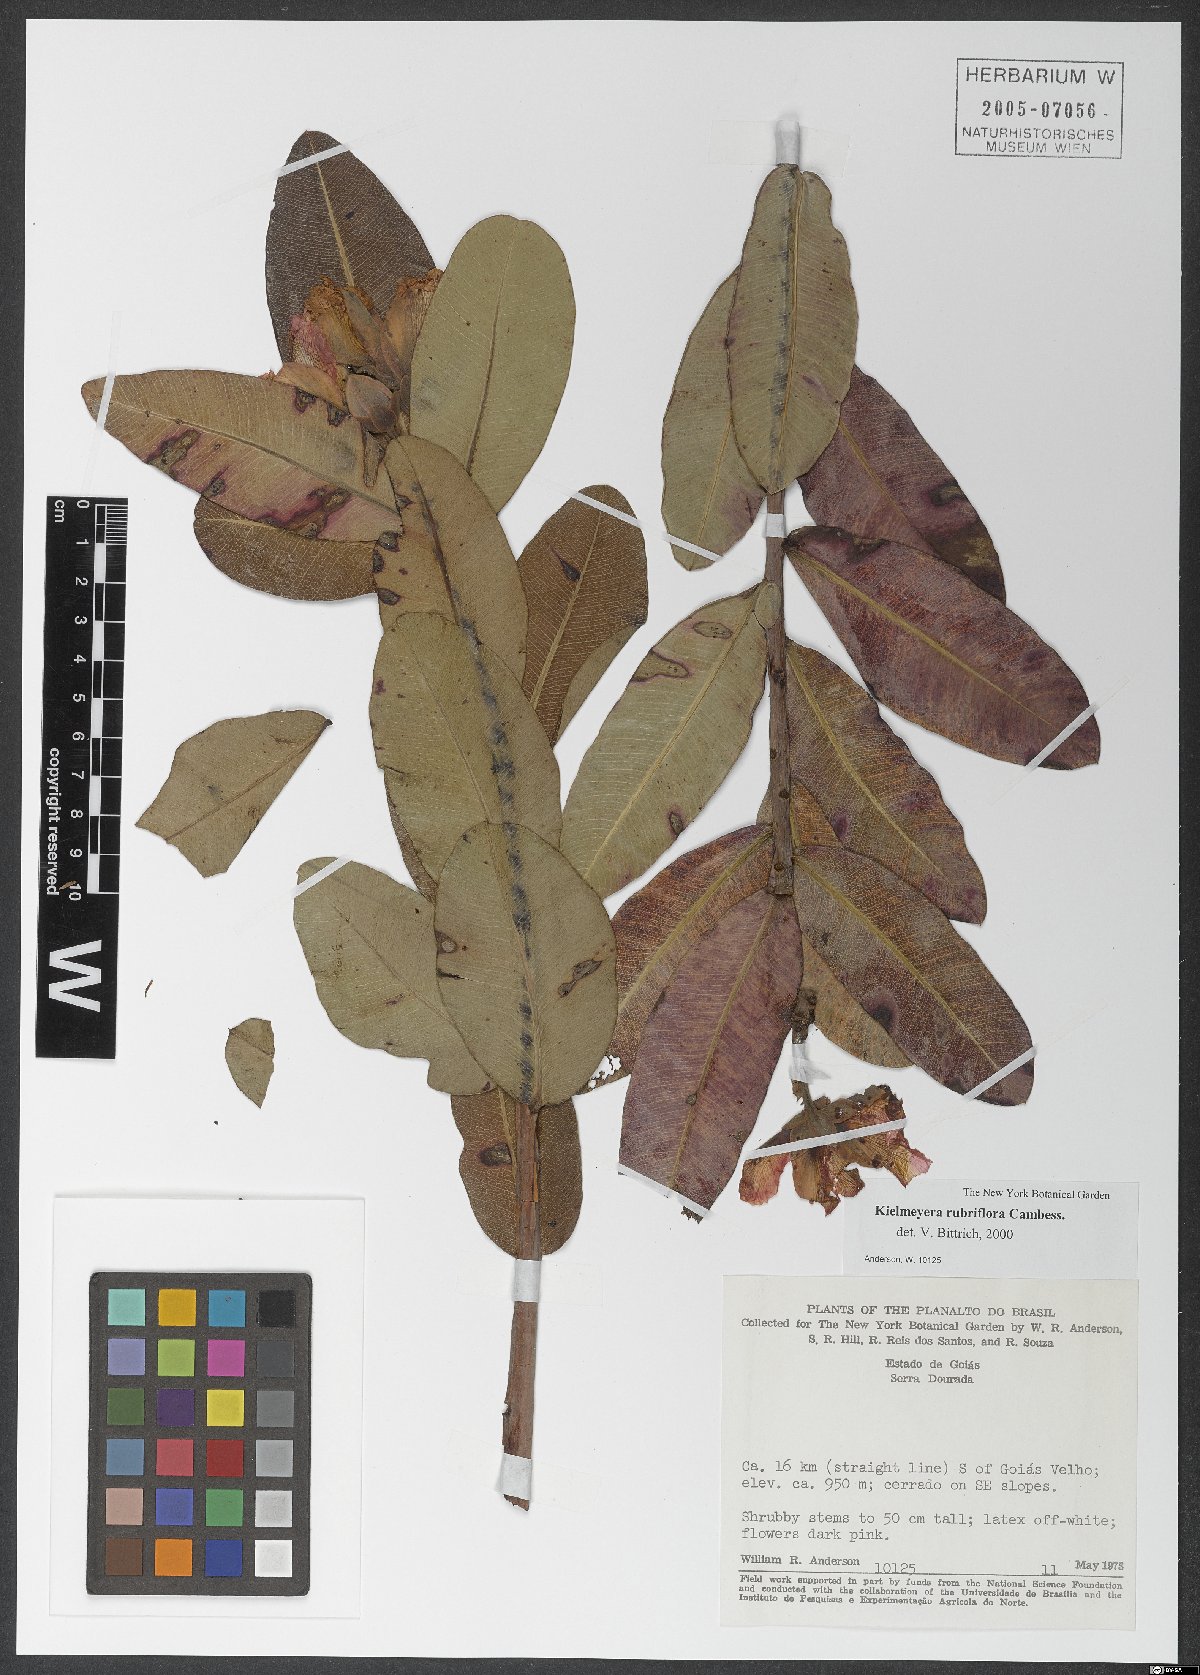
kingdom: Plantae
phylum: Tracheophyta
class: Magnoliopsida
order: Malpighiales
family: Calophyllaceae
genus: Kielmeyera
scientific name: Kielmeyera rubriflora
